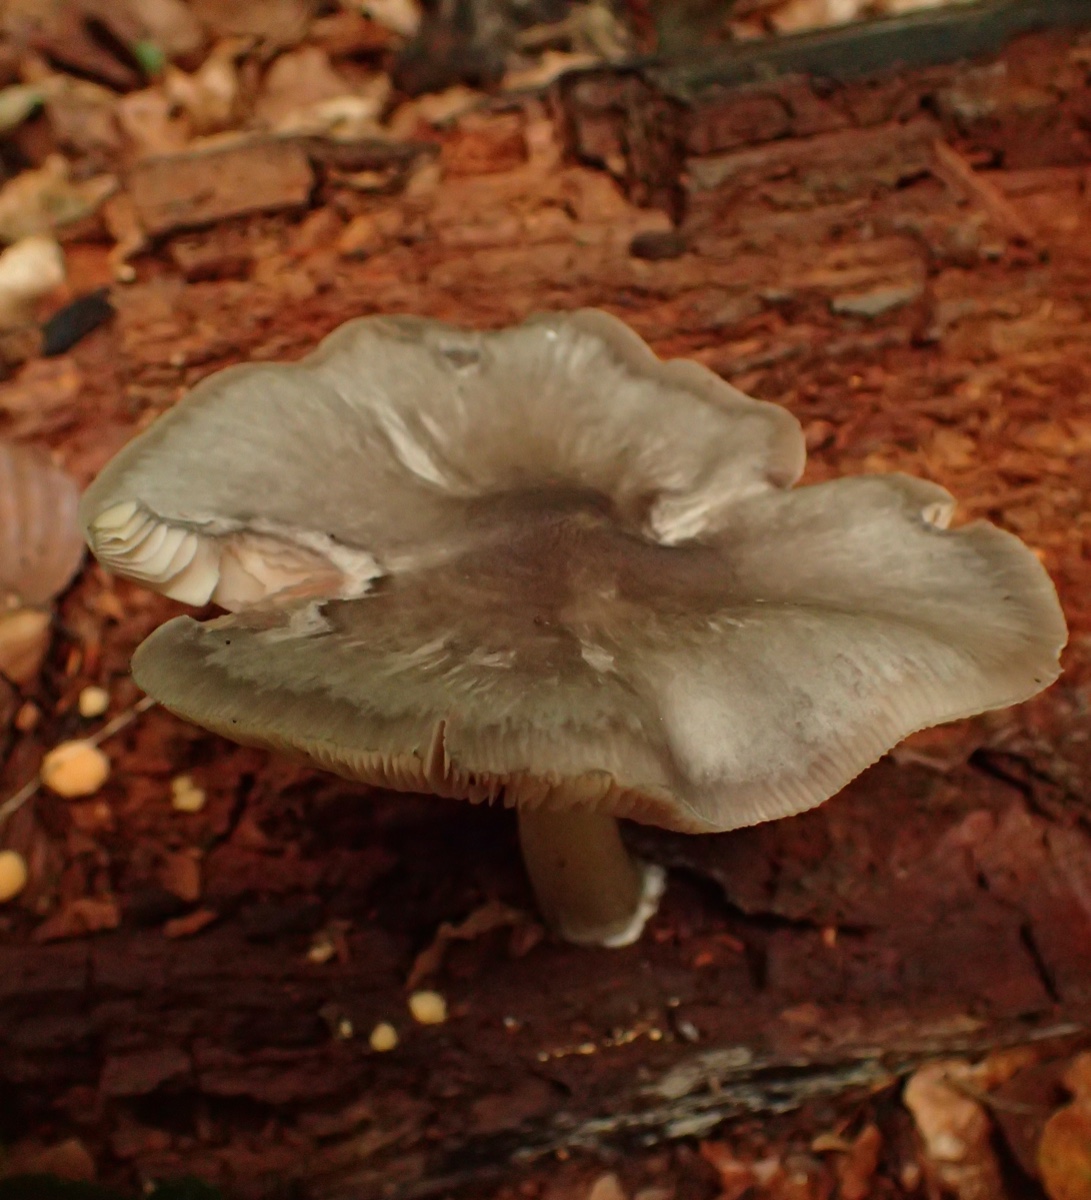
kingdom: Fungi
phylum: Basidiomycota
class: Agaricomycetes
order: Agaricales
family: Pluteaceae
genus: Pluteus
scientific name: Pluteus salicinus
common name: stiv skærmhat
